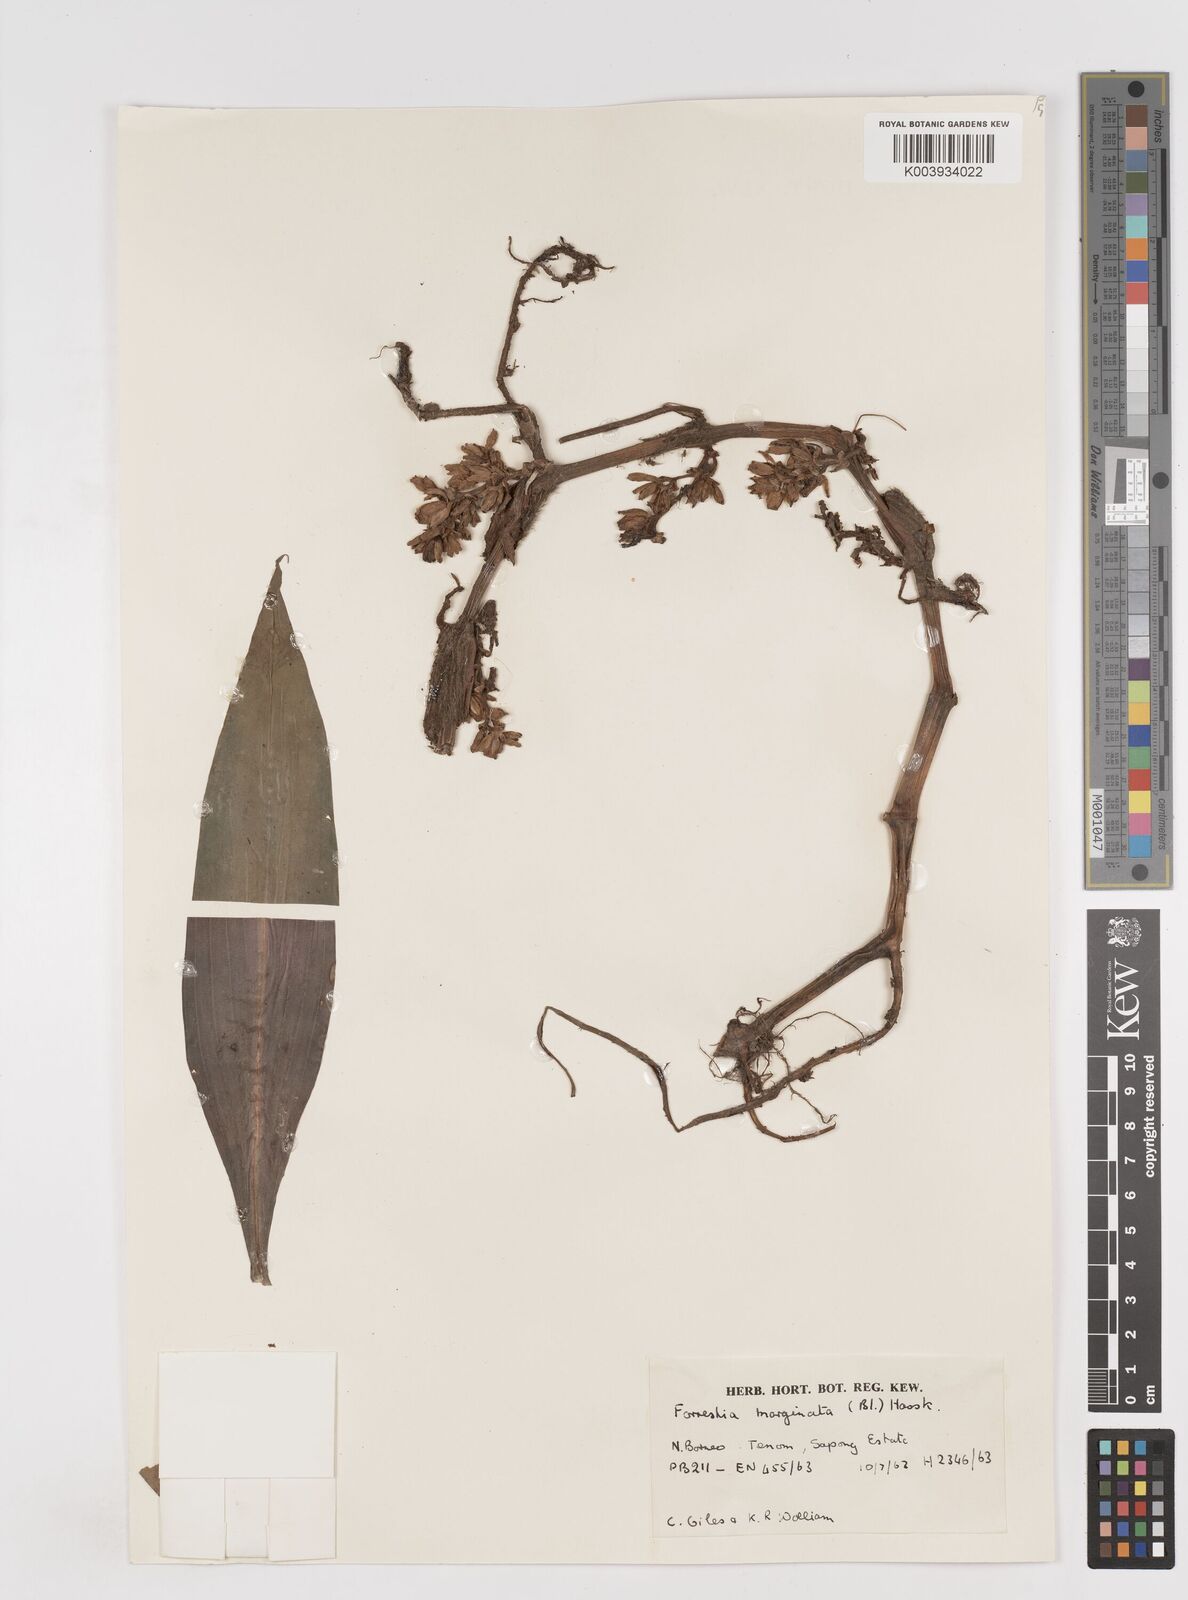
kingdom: Plantae
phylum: Tracheophyta
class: Liliopsida
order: Commelinales
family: Commelinaceae
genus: Amischotolype
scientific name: Amischotolype marginata
